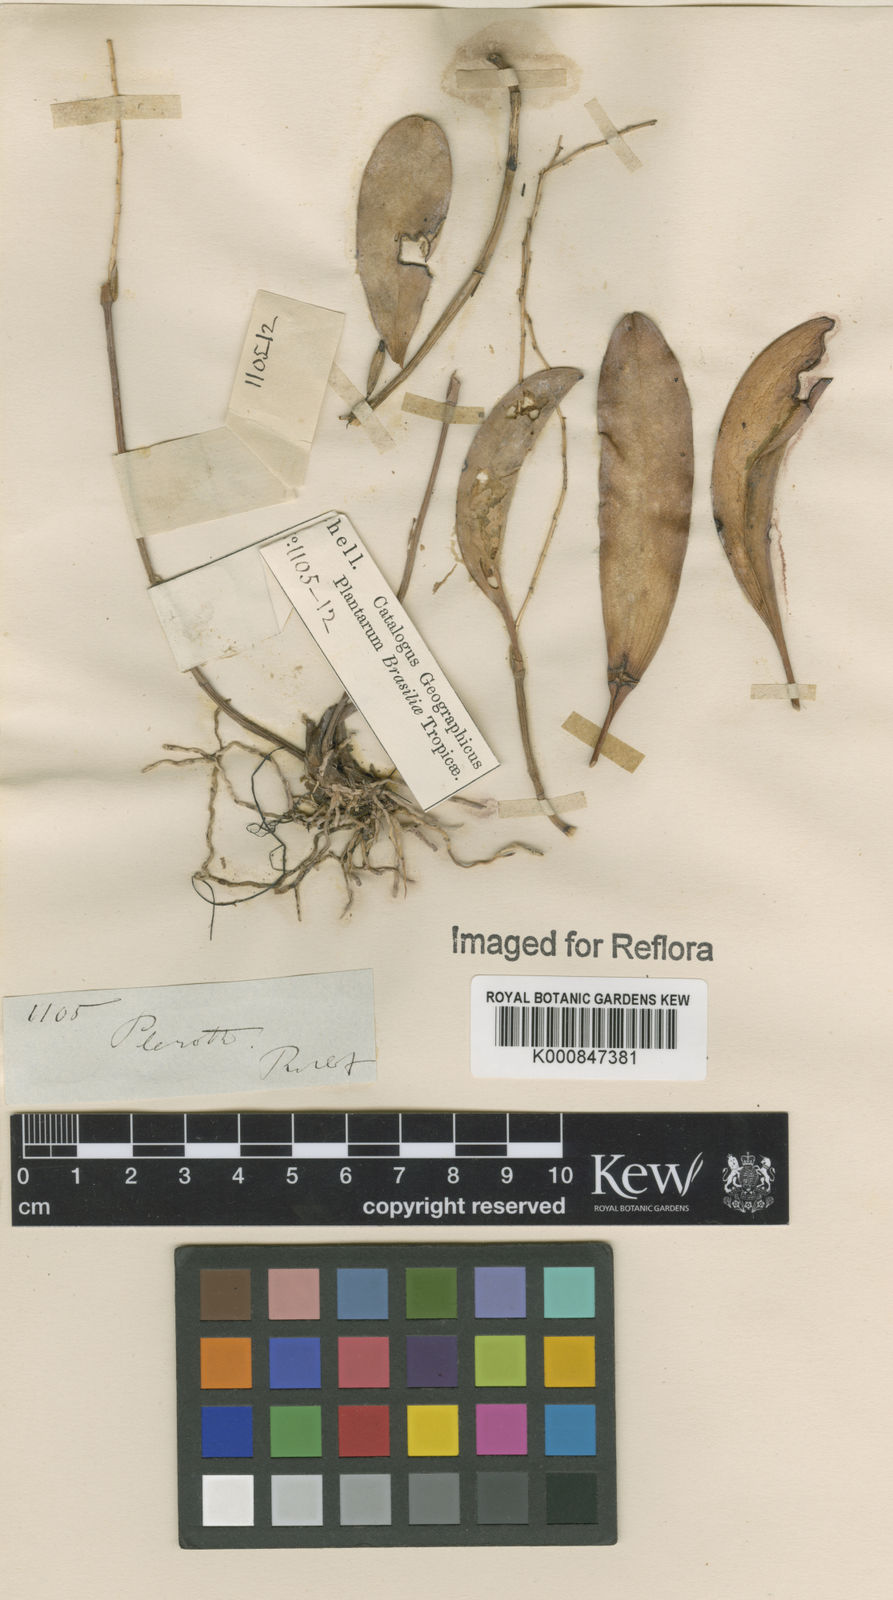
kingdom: Plantae
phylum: Tracheophyta
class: Liliopsida
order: Asparagales
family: Orchidaceae
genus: Pleurothallis
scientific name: Pleurothallis
